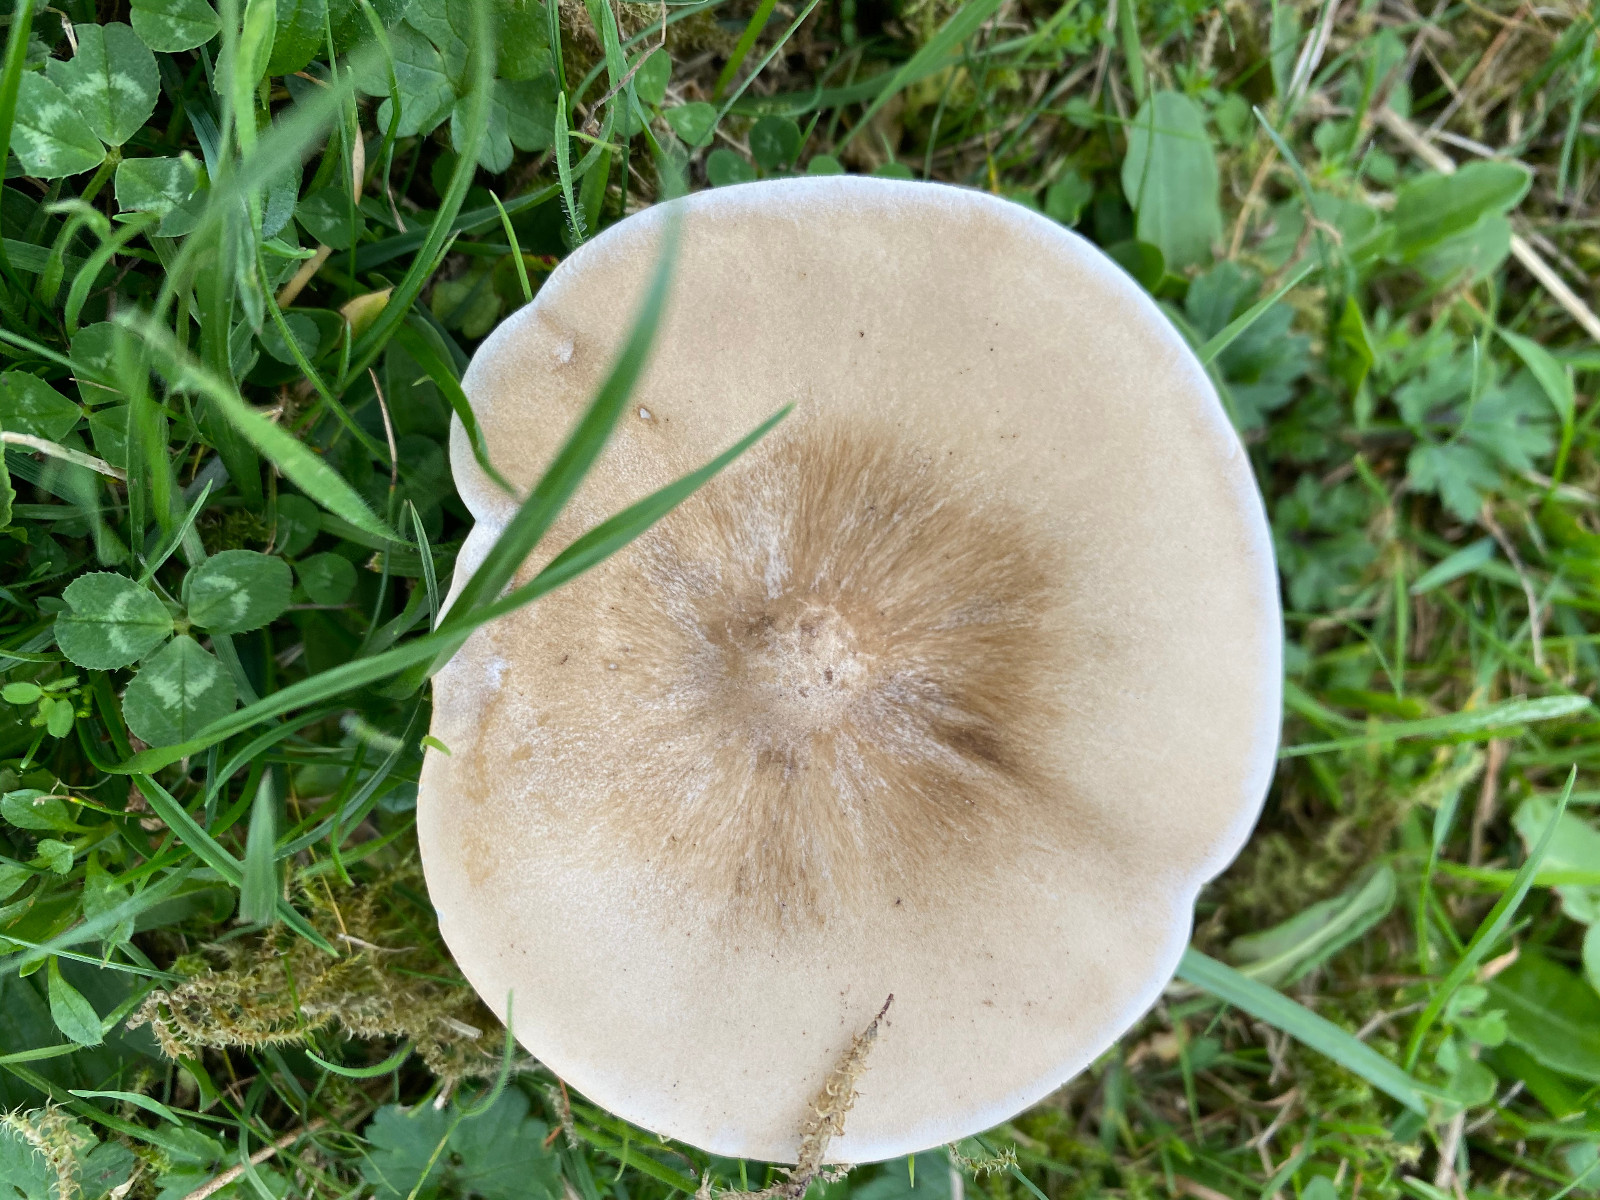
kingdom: Fungi
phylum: Basidiomycota
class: Agaricomycetes
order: Agaricales
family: Tricholomataceae
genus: Melanoleuca
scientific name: Melanoleuca
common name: munkehat
